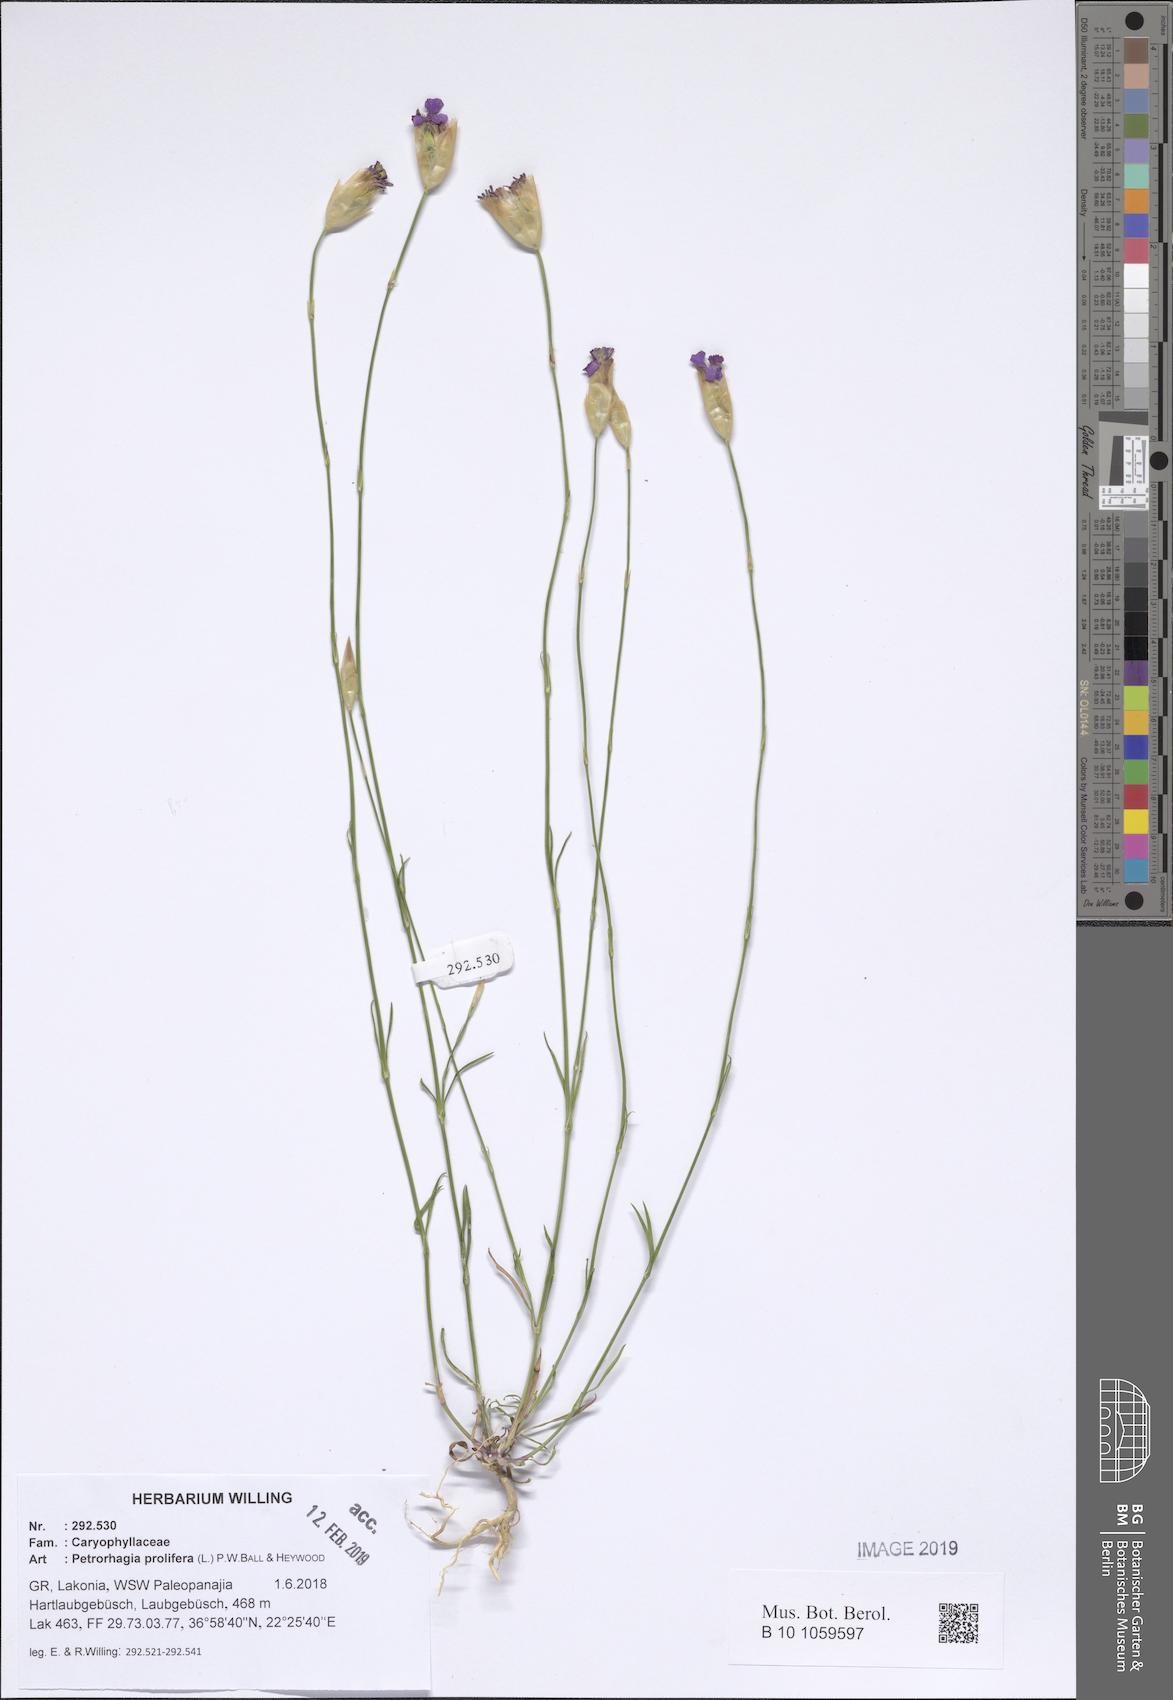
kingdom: Plantae
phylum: Tracheophyta
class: Magnoliopsida
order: Caryophyllales
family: Caryophyllaceae
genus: Petrorhagia
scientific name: Petrorhagia prolifera
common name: Proliferous pink
